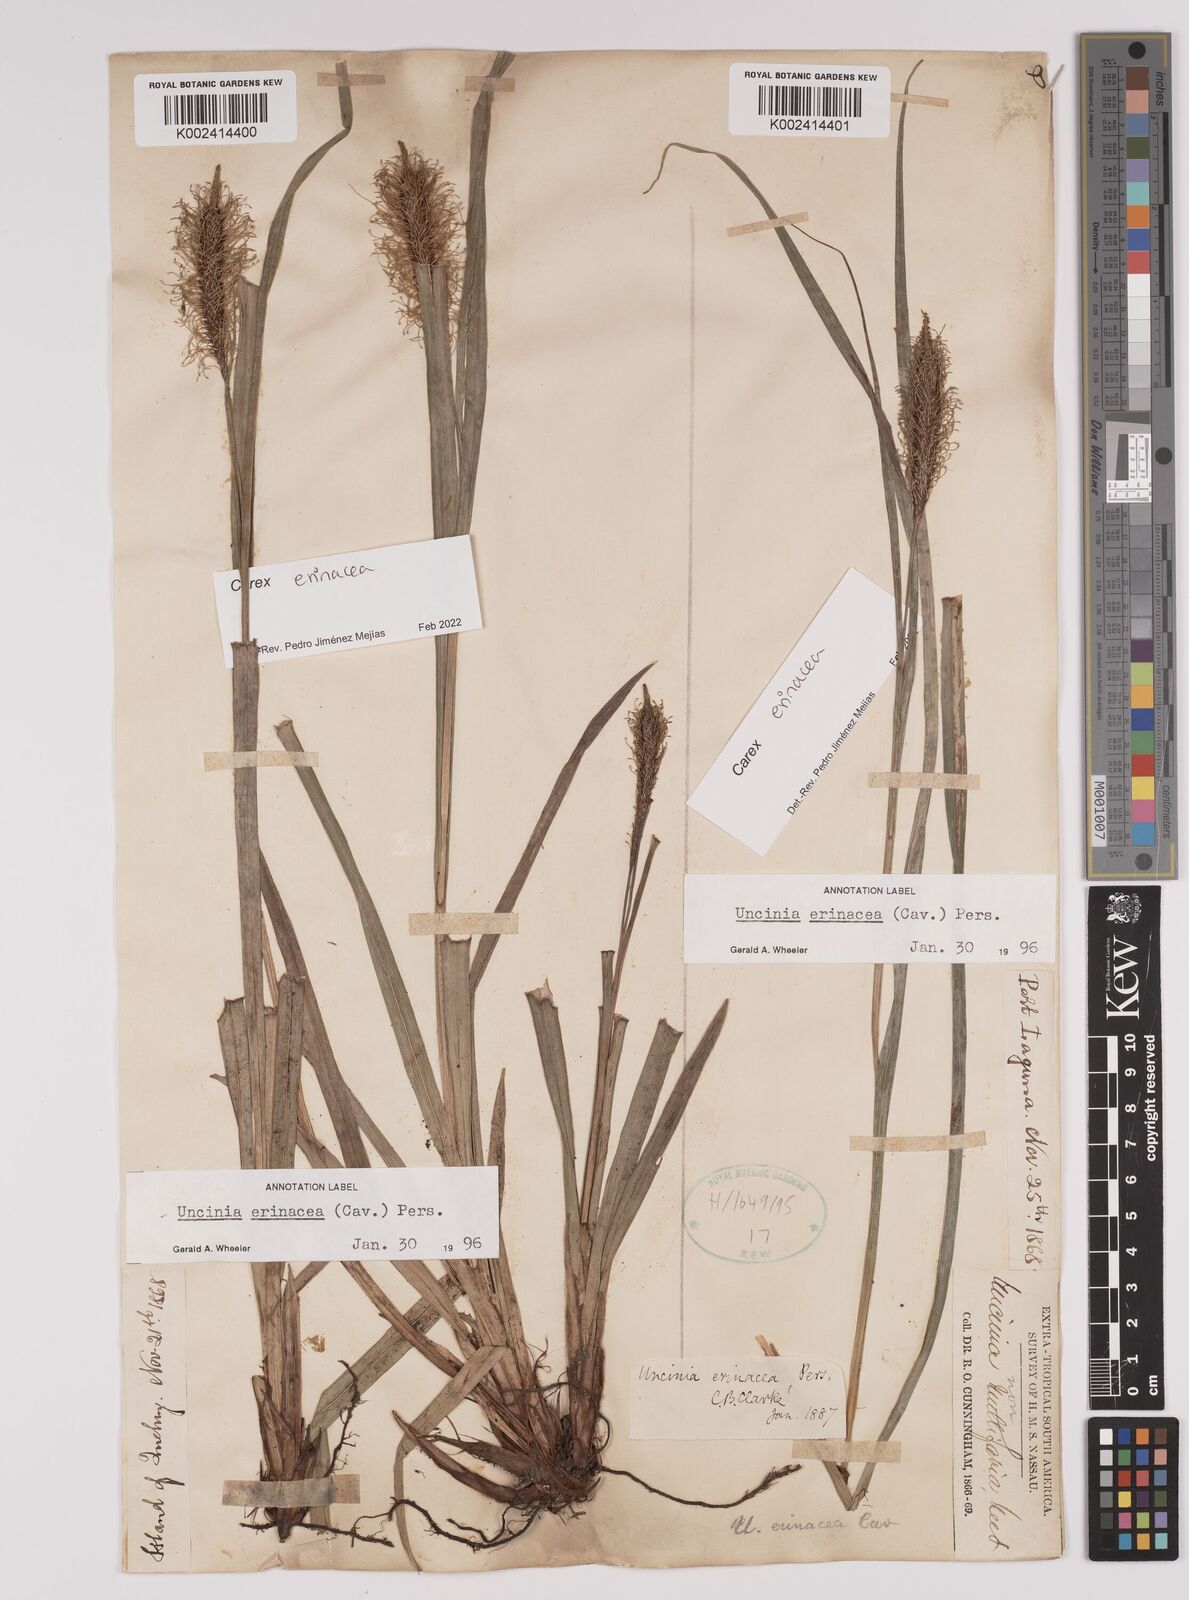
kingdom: Plantae
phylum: Tracheophyta
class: Liliopsida
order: Poales
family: Cyperaceae
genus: Carex
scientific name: Carex erinacea
